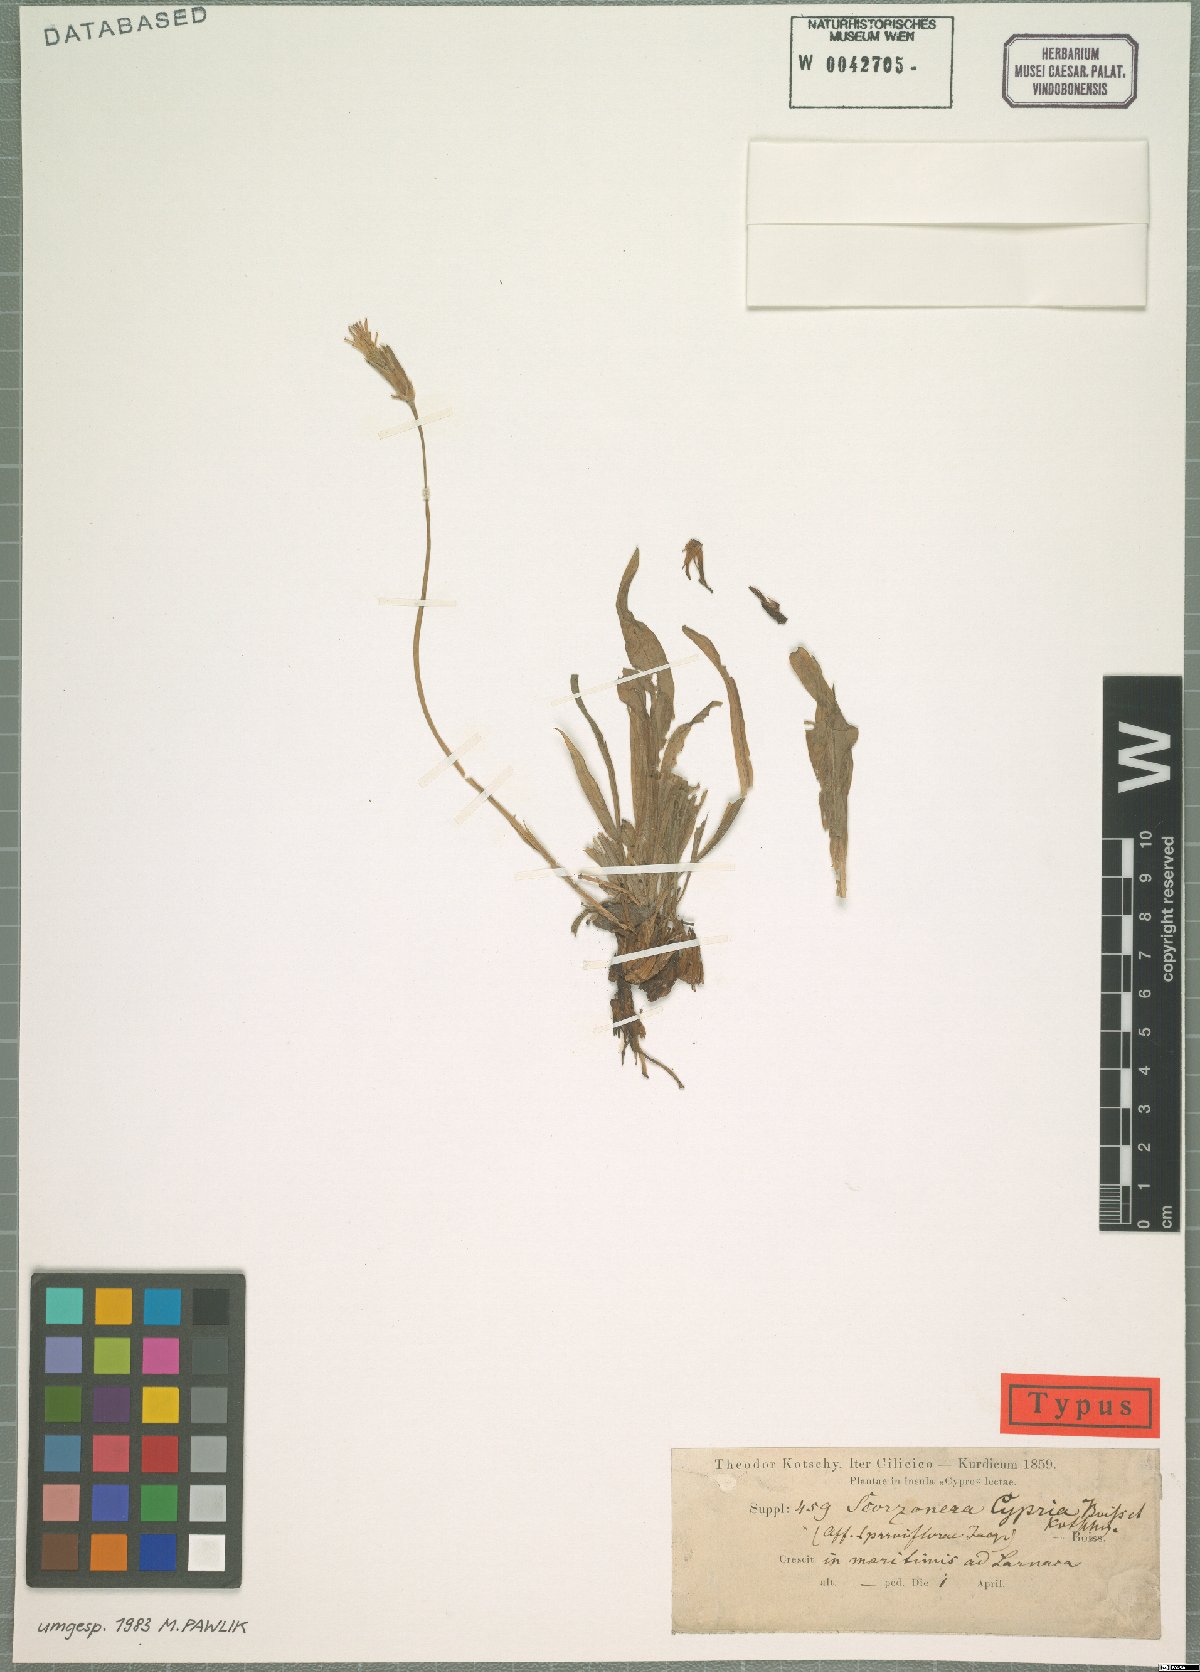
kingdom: Plantae
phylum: Tracheophyta
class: Magnoliopsida
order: Asterales
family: Asteraceae
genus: Scorzonera
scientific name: Scorzonera parviflora
